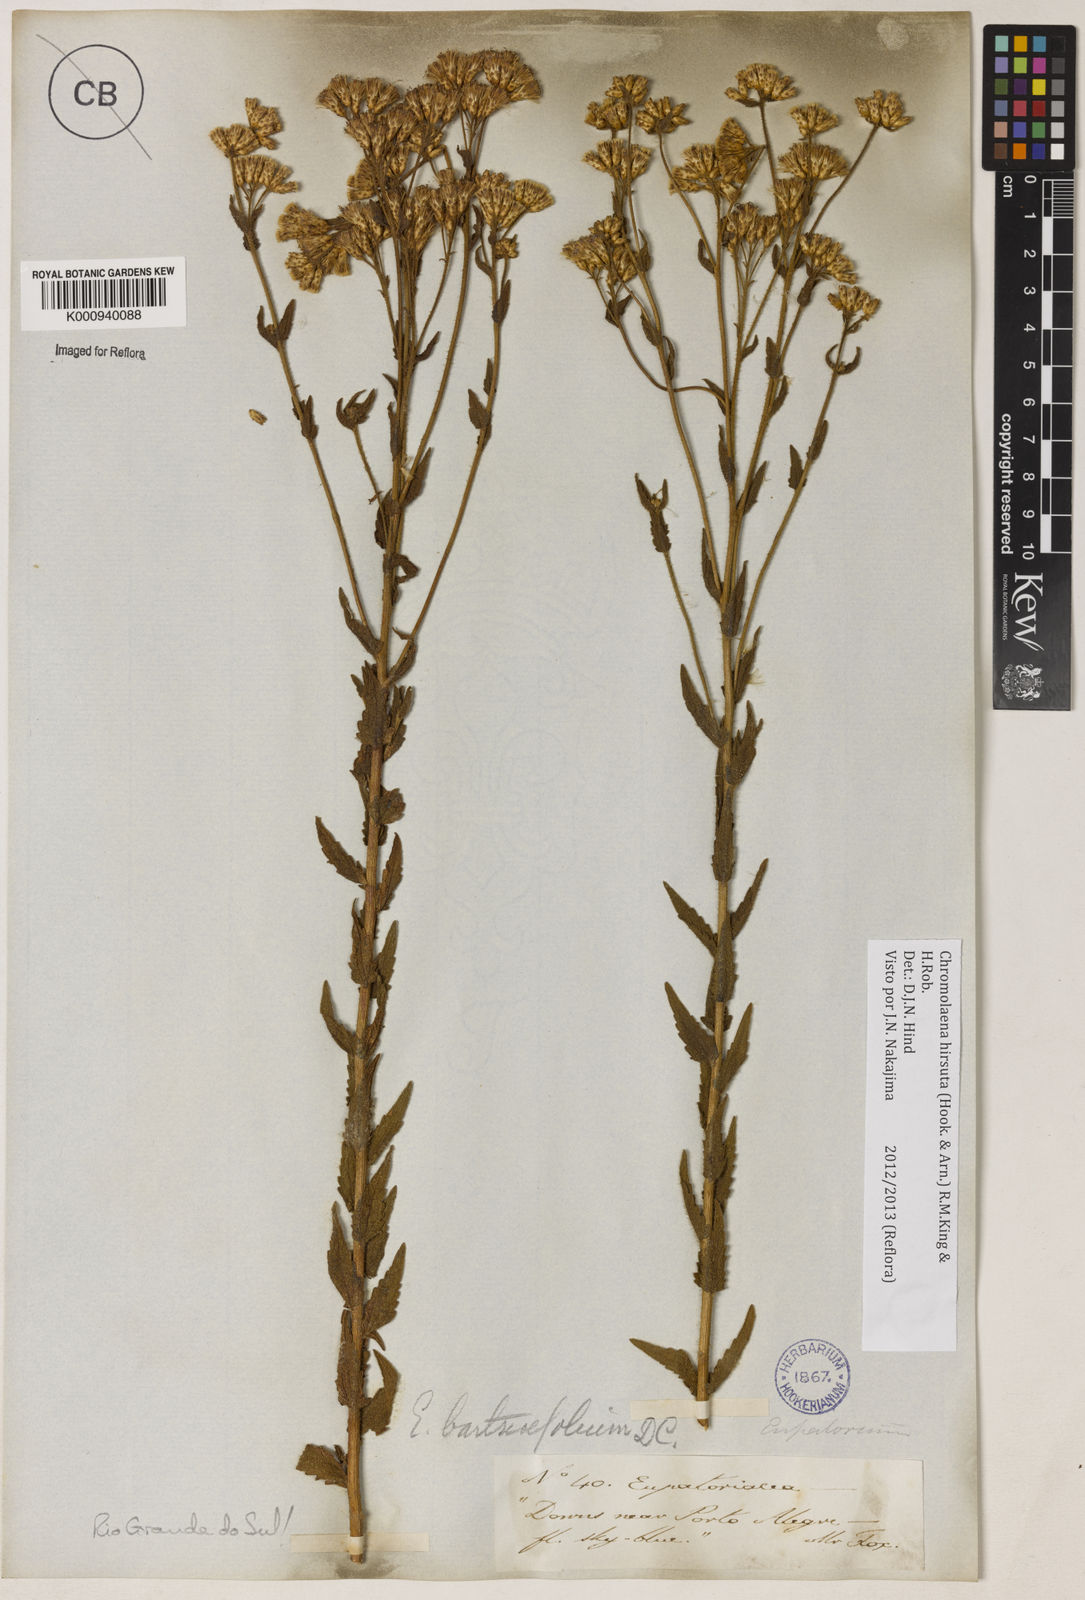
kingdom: Plantae
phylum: Tracheophyta
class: Magnoliopsida
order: Asterales
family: Asteraceae
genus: Chromolaena
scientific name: Chromolaena hirsuta
